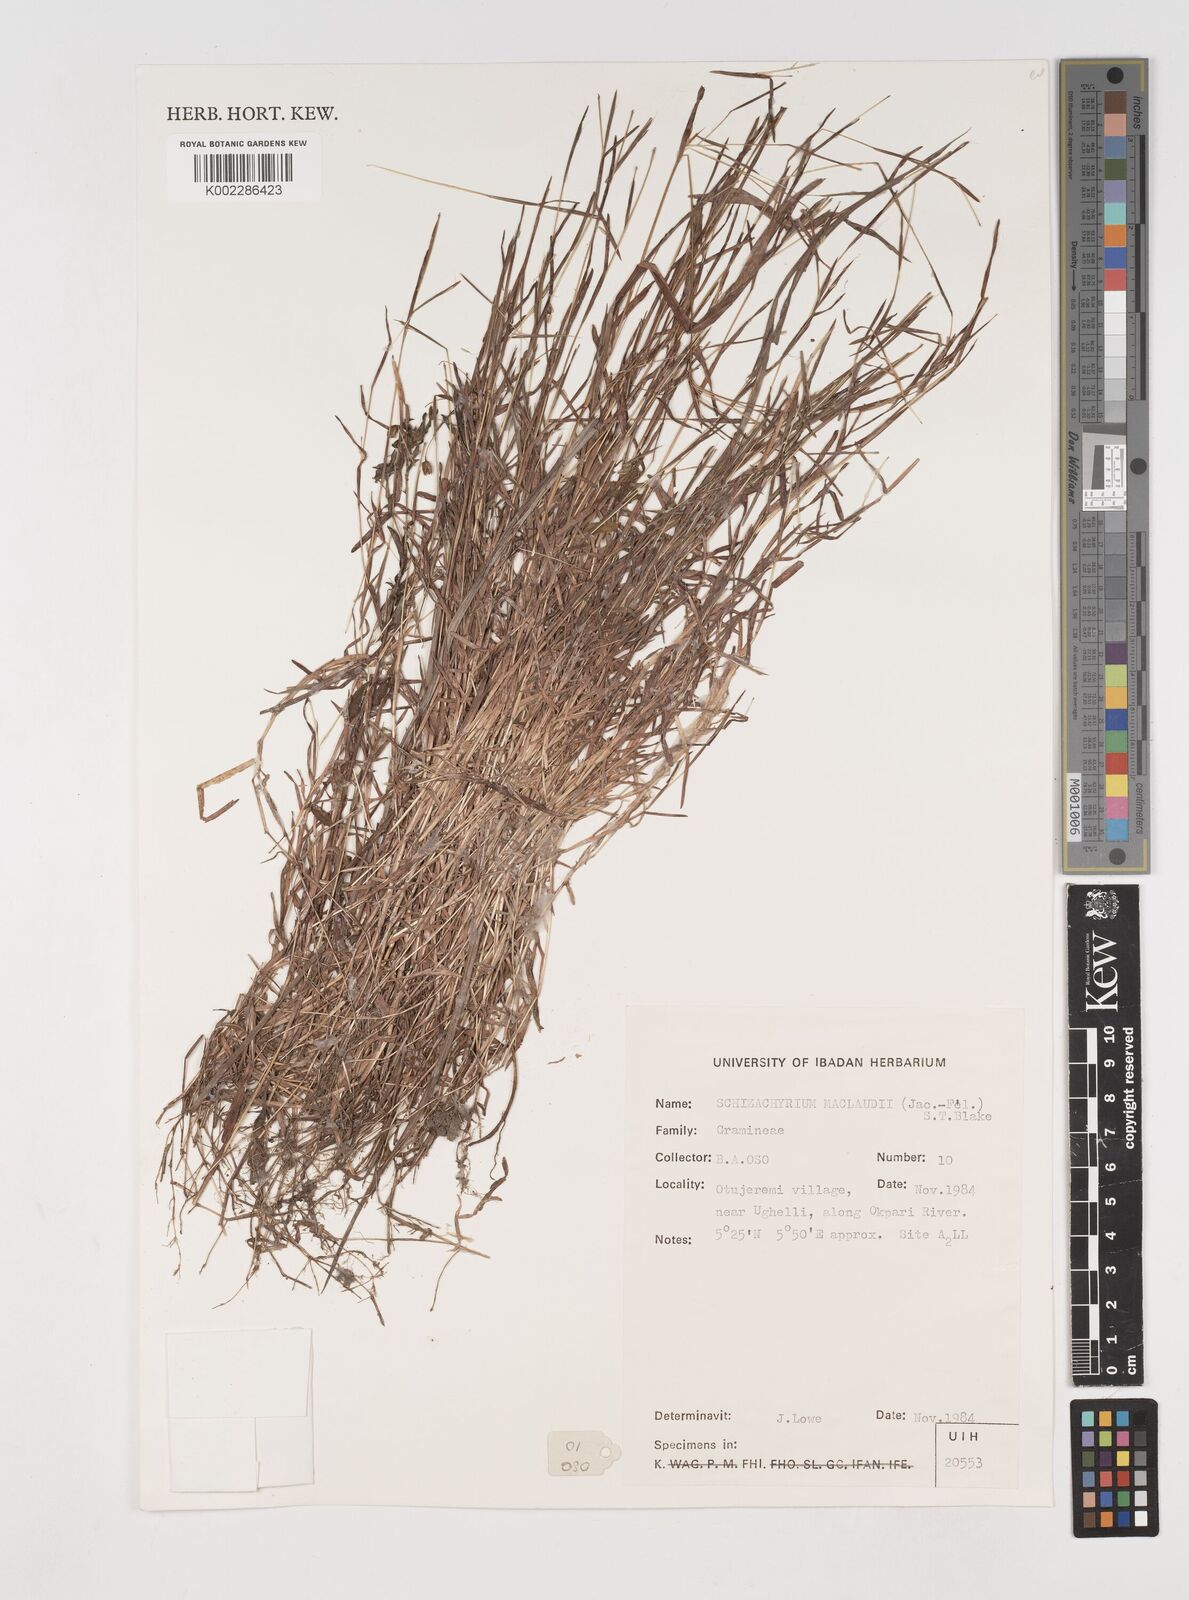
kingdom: Plantae
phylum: Tracheophyta
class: Liliopsida
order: Poales
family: Poaceae
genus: Schizachyrium
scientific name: Schizachyrium maclaudii
